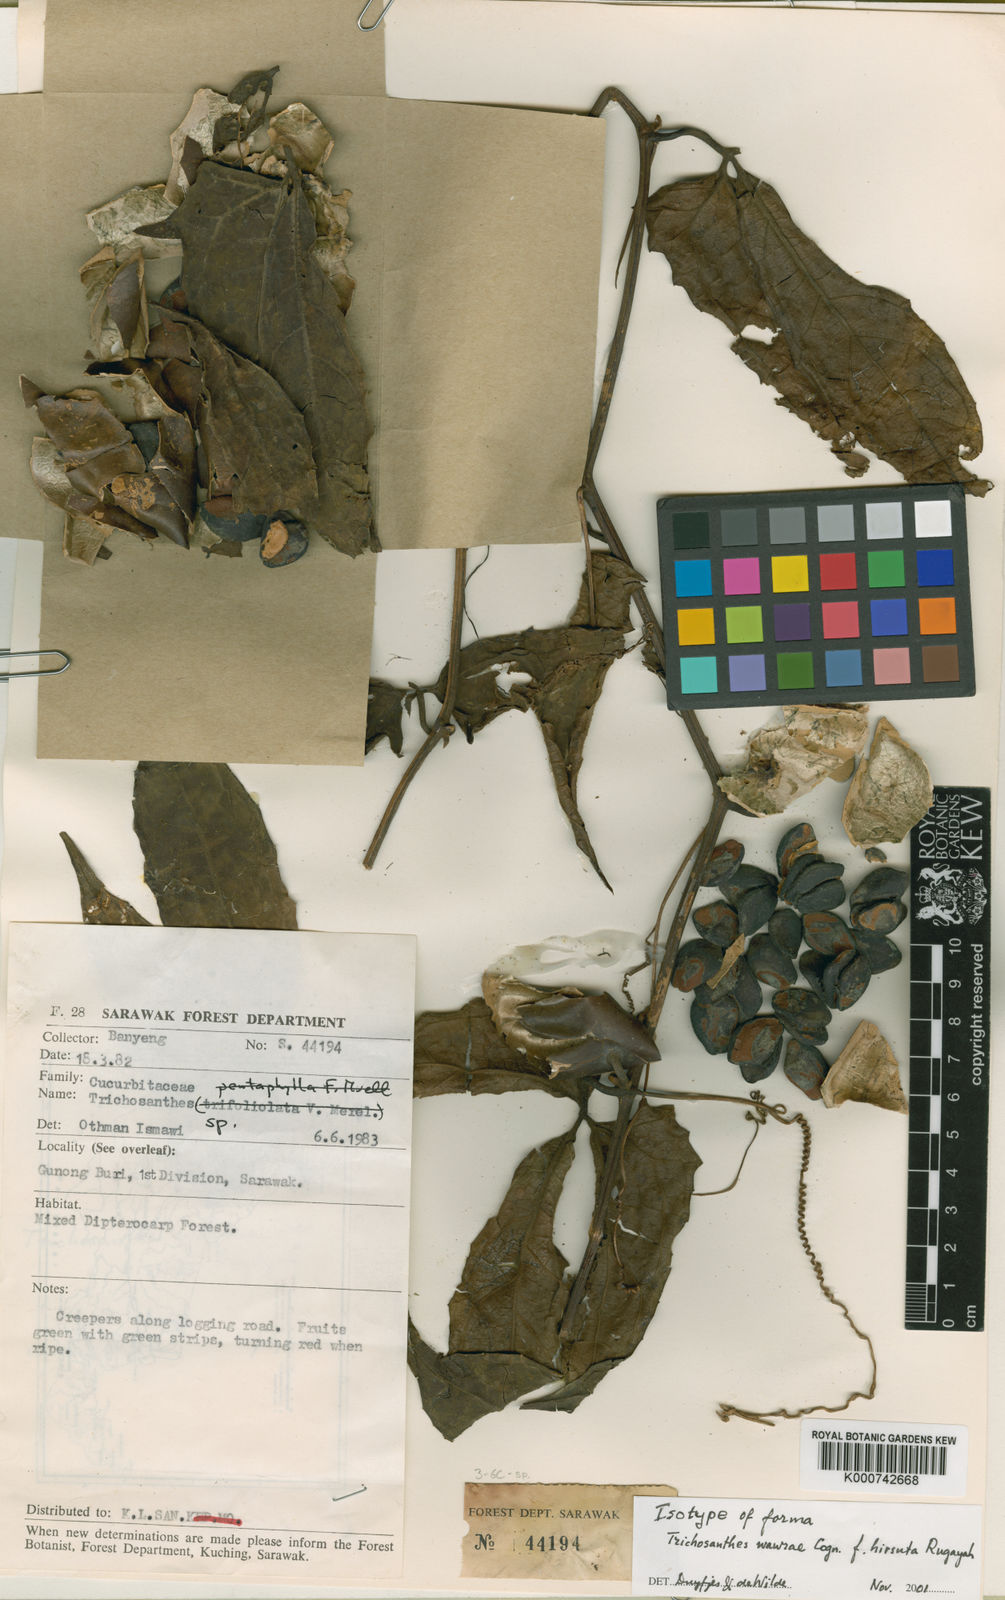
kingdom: Plantae
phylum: Tracheophyta
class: Magnoliopsida
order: Cucurbitales
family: Cucurbitaceae
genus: Trichosanthes
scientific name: Trichosanthes wawrae
